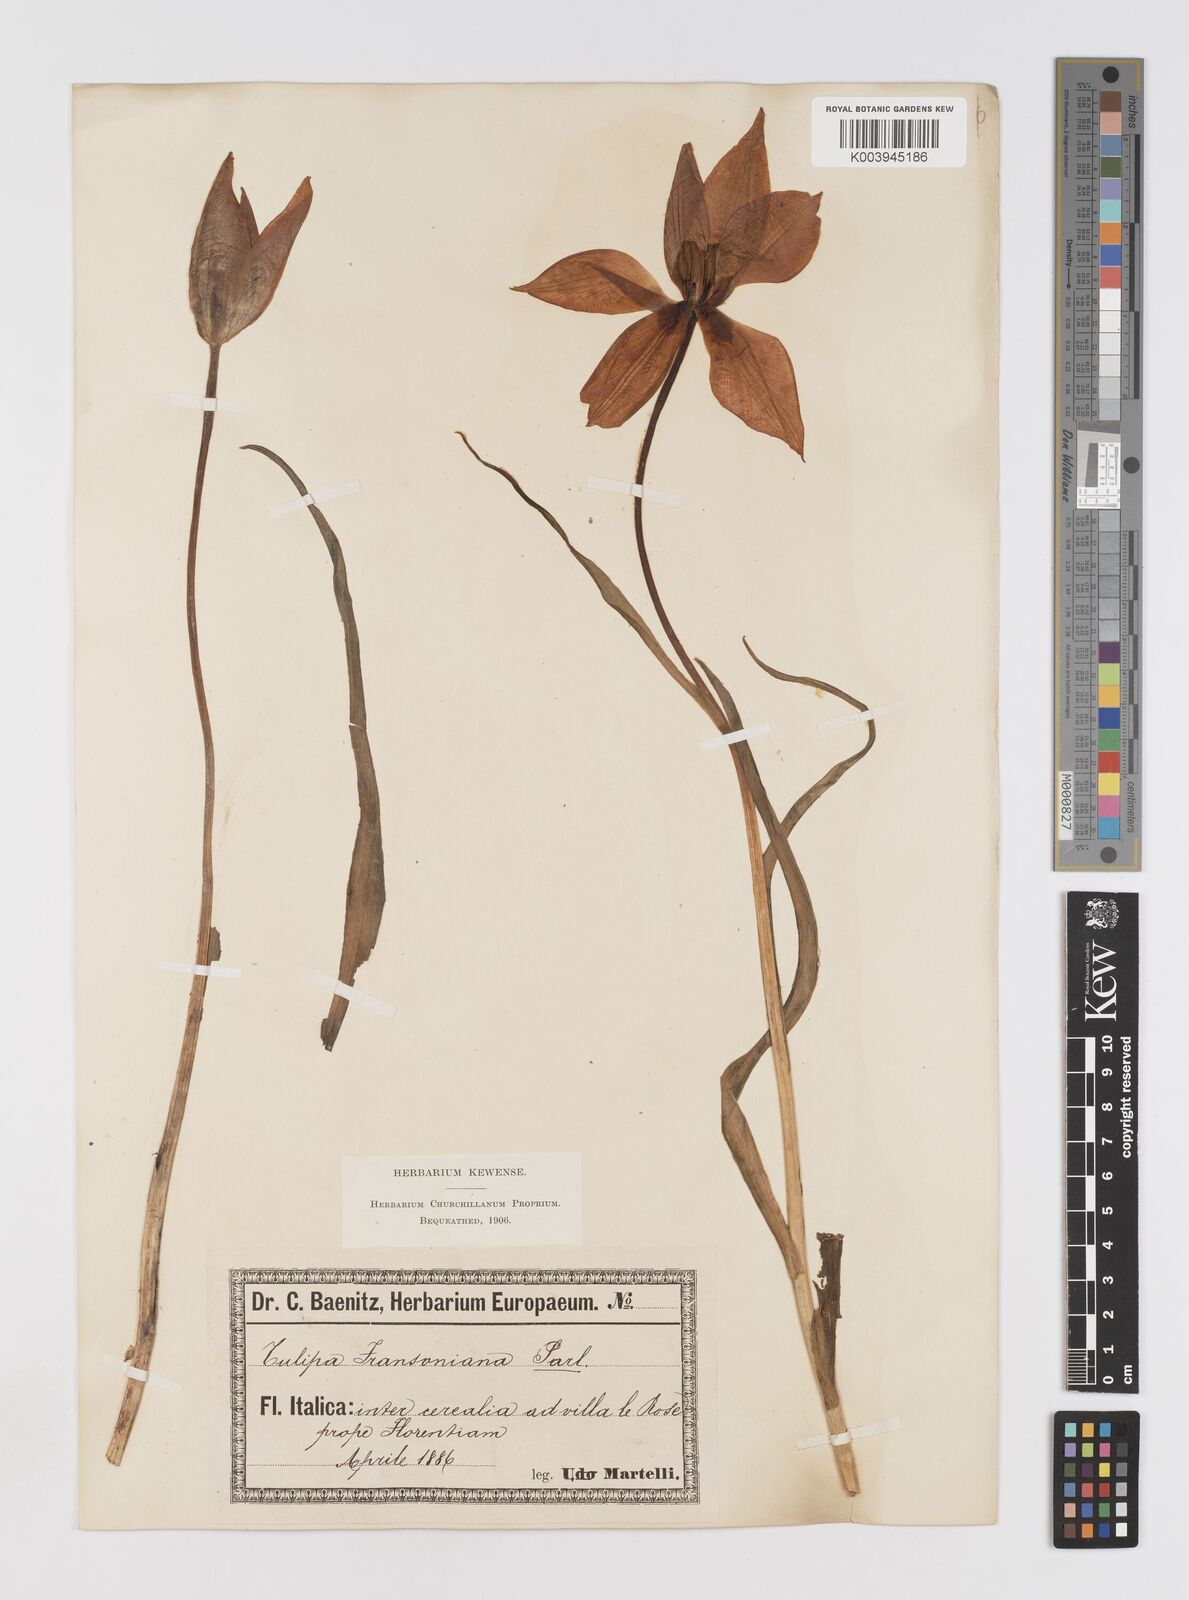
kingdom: Plantae
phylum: Tracheophyta
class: Liliopsida
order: Liliales
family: Liliaceae
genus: Tulipa
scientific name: Tulipa gesneriana
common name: Garden tulip
